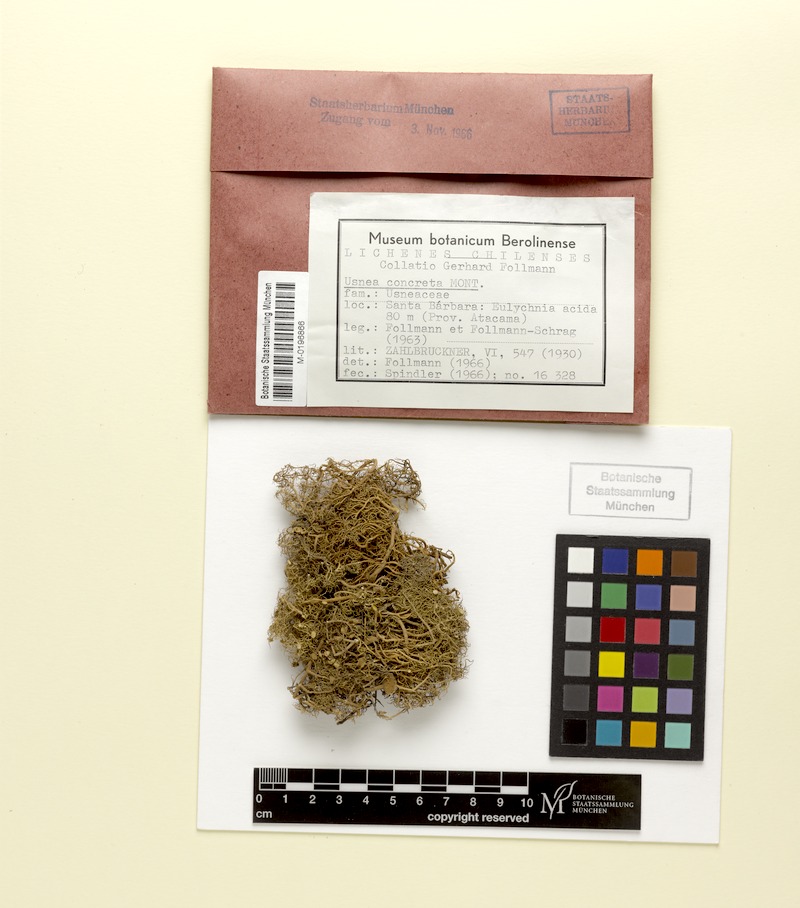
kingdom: Fungi
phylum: Ascomycota
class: Lecanoromycetes
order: Lecanorales
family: Parmeliaceae
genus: Usnea
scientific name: Usnea
